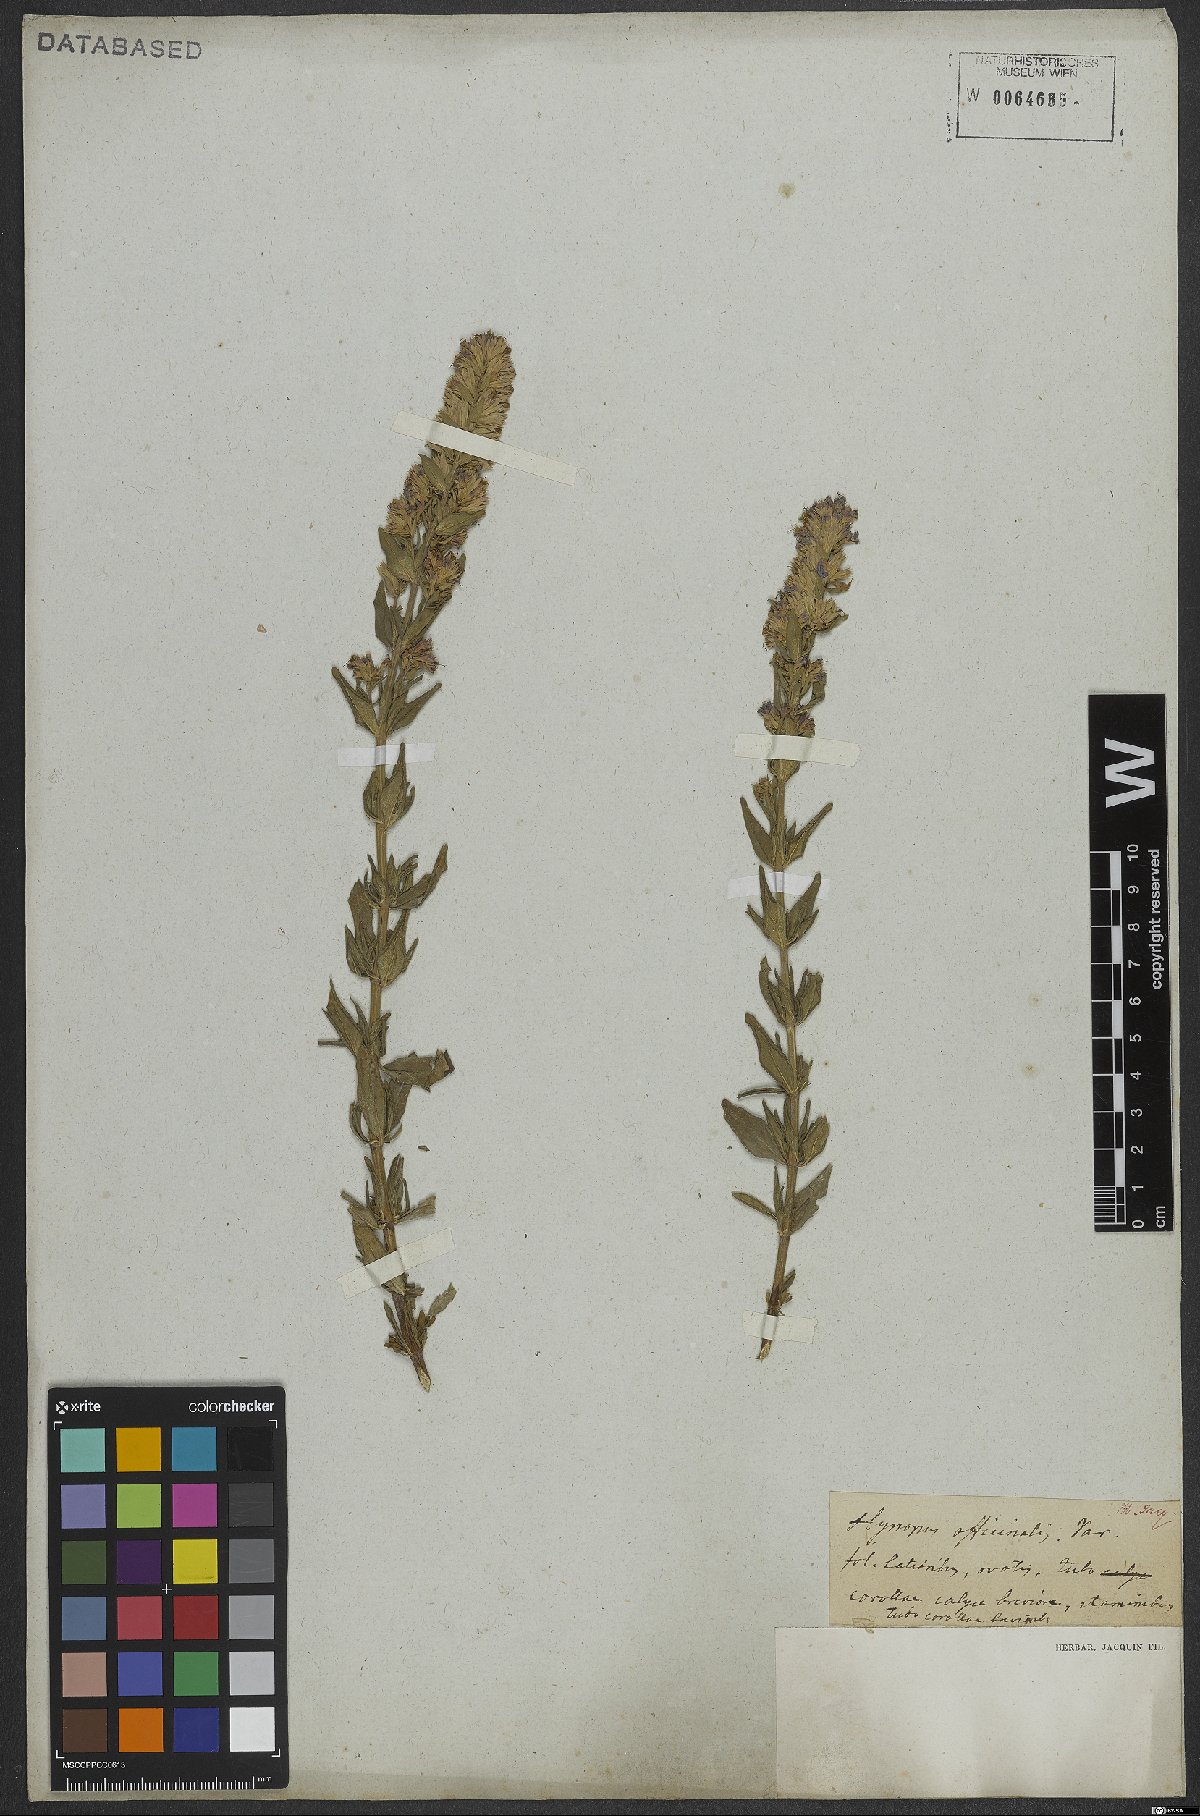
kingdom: Plantae
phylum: Tracheophyta
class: Magnoliopsida
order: Lamiales
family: Lamiaceae
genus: Hyssopus
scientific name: Hyssopus officinalis
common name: Hyssop
